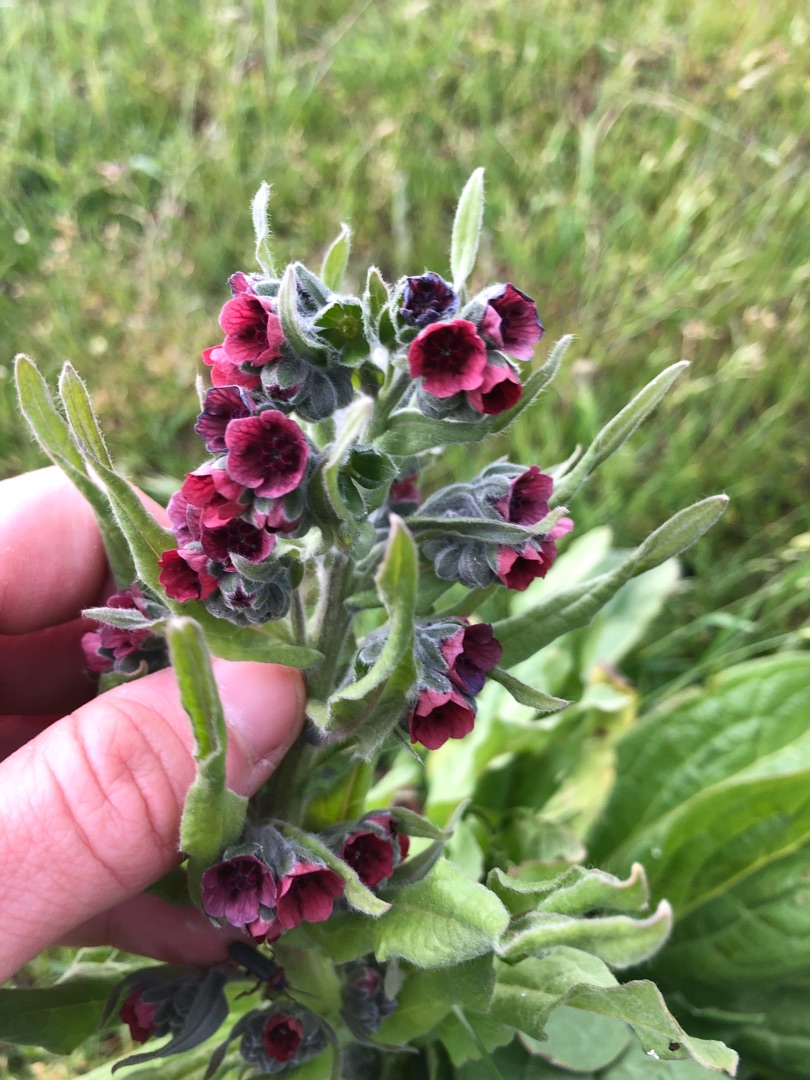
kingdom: Plantae
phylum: Tracheophyta
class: Magnoliopsida
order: Boraginales
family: Boraginaceae
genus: Cynoglossum
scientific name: Cynoglossum officinale
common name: Hundetunge
